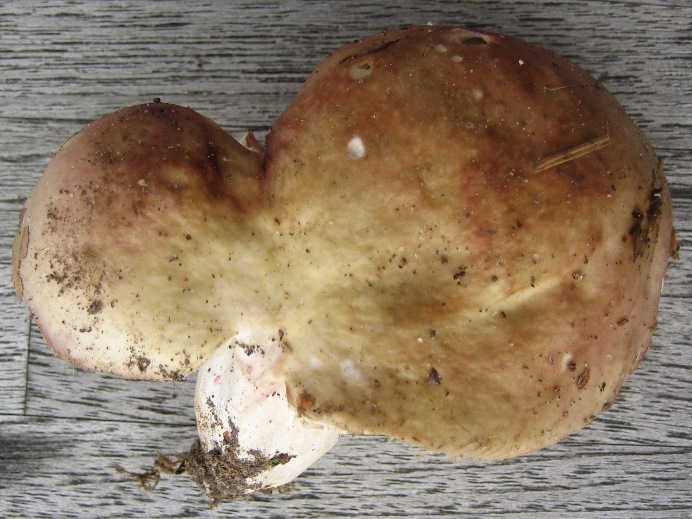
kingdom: Fungi
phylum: Basidiomycota
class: Agaricomycetes
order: Russulales
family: Russulaceae
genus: Russula
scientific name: Russula depallens
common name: falmende skørhat
